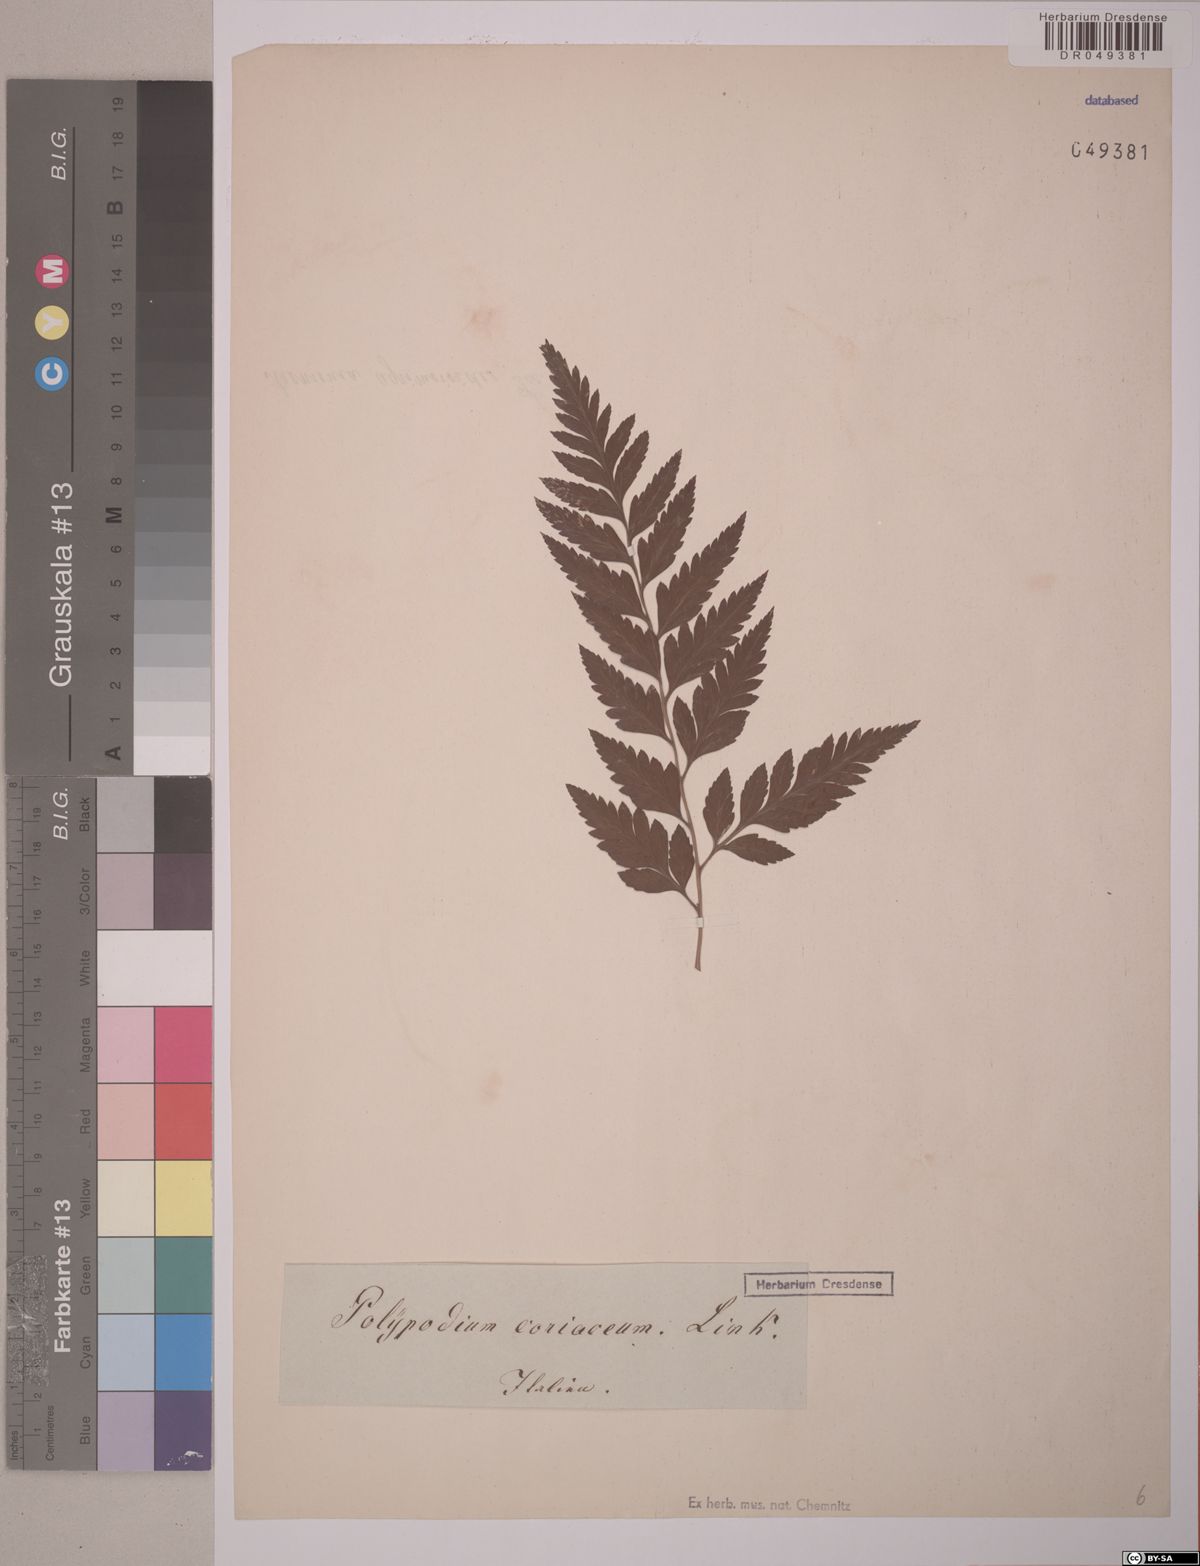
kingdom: Plantae
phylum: Tracheophyta
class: Polypodiopsida
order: Polypodiales
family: Polypodiaceae
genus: Niphidium
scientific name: Niphidium crassifolium
